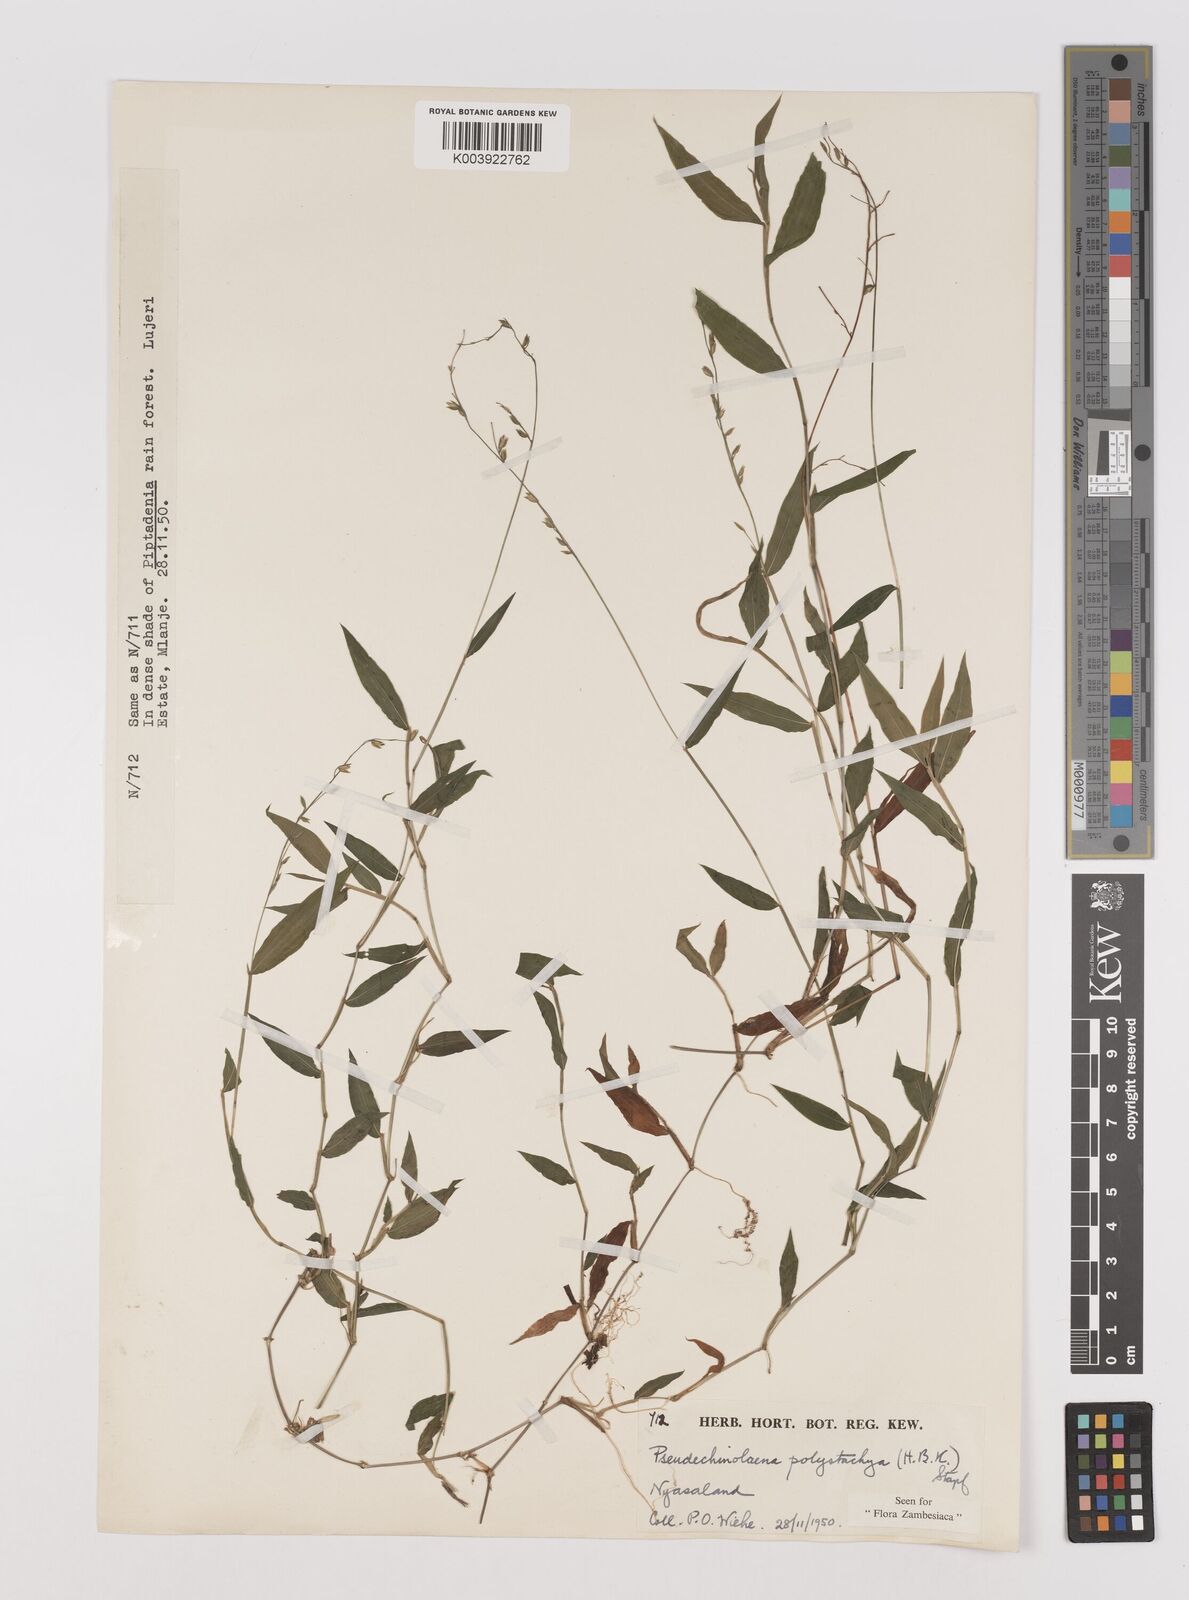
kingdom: Plantae
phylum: Tracheophyta
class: Liliopsida
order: Poales
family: Poaceae
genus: Pseudechinolaena
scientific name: Pseudechinolaena polystachya
